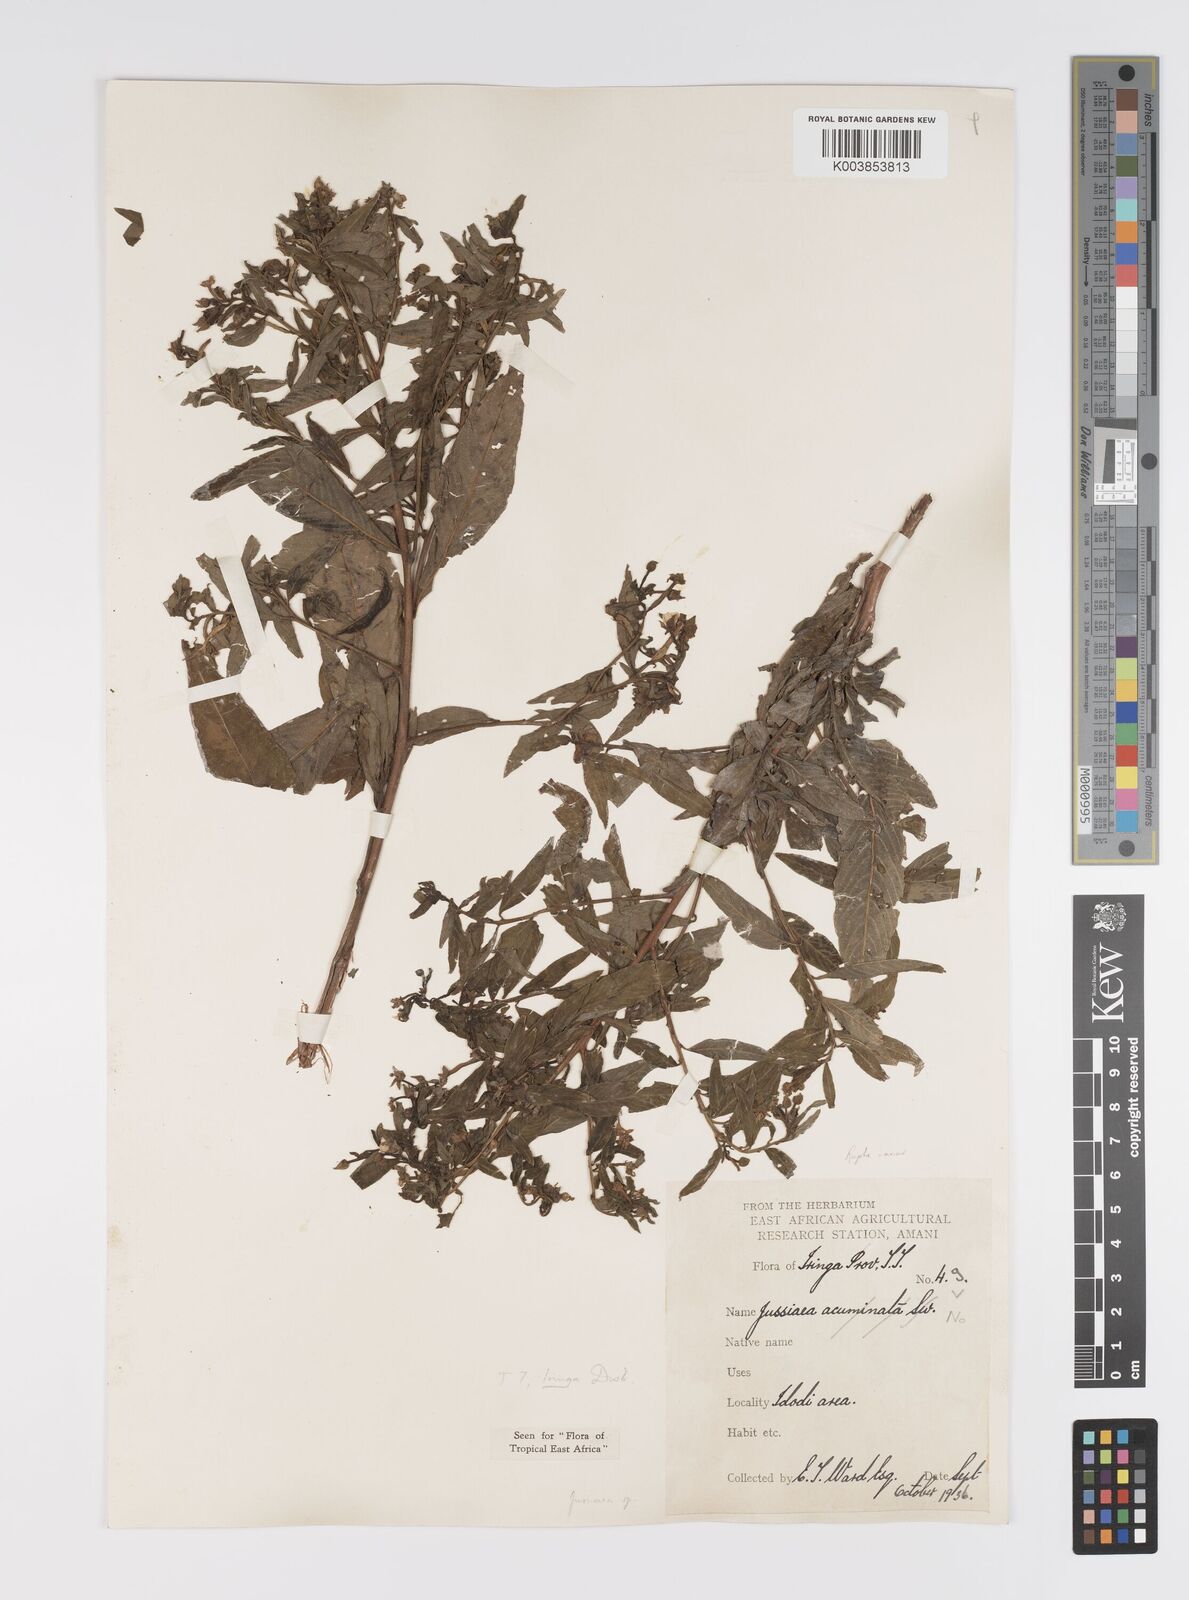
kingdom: Plantae
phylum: Tracheophyta
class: Magnoliopsida
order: Myrtales
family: Onagraceae
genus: Ludwigia
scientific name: Ludwigia
